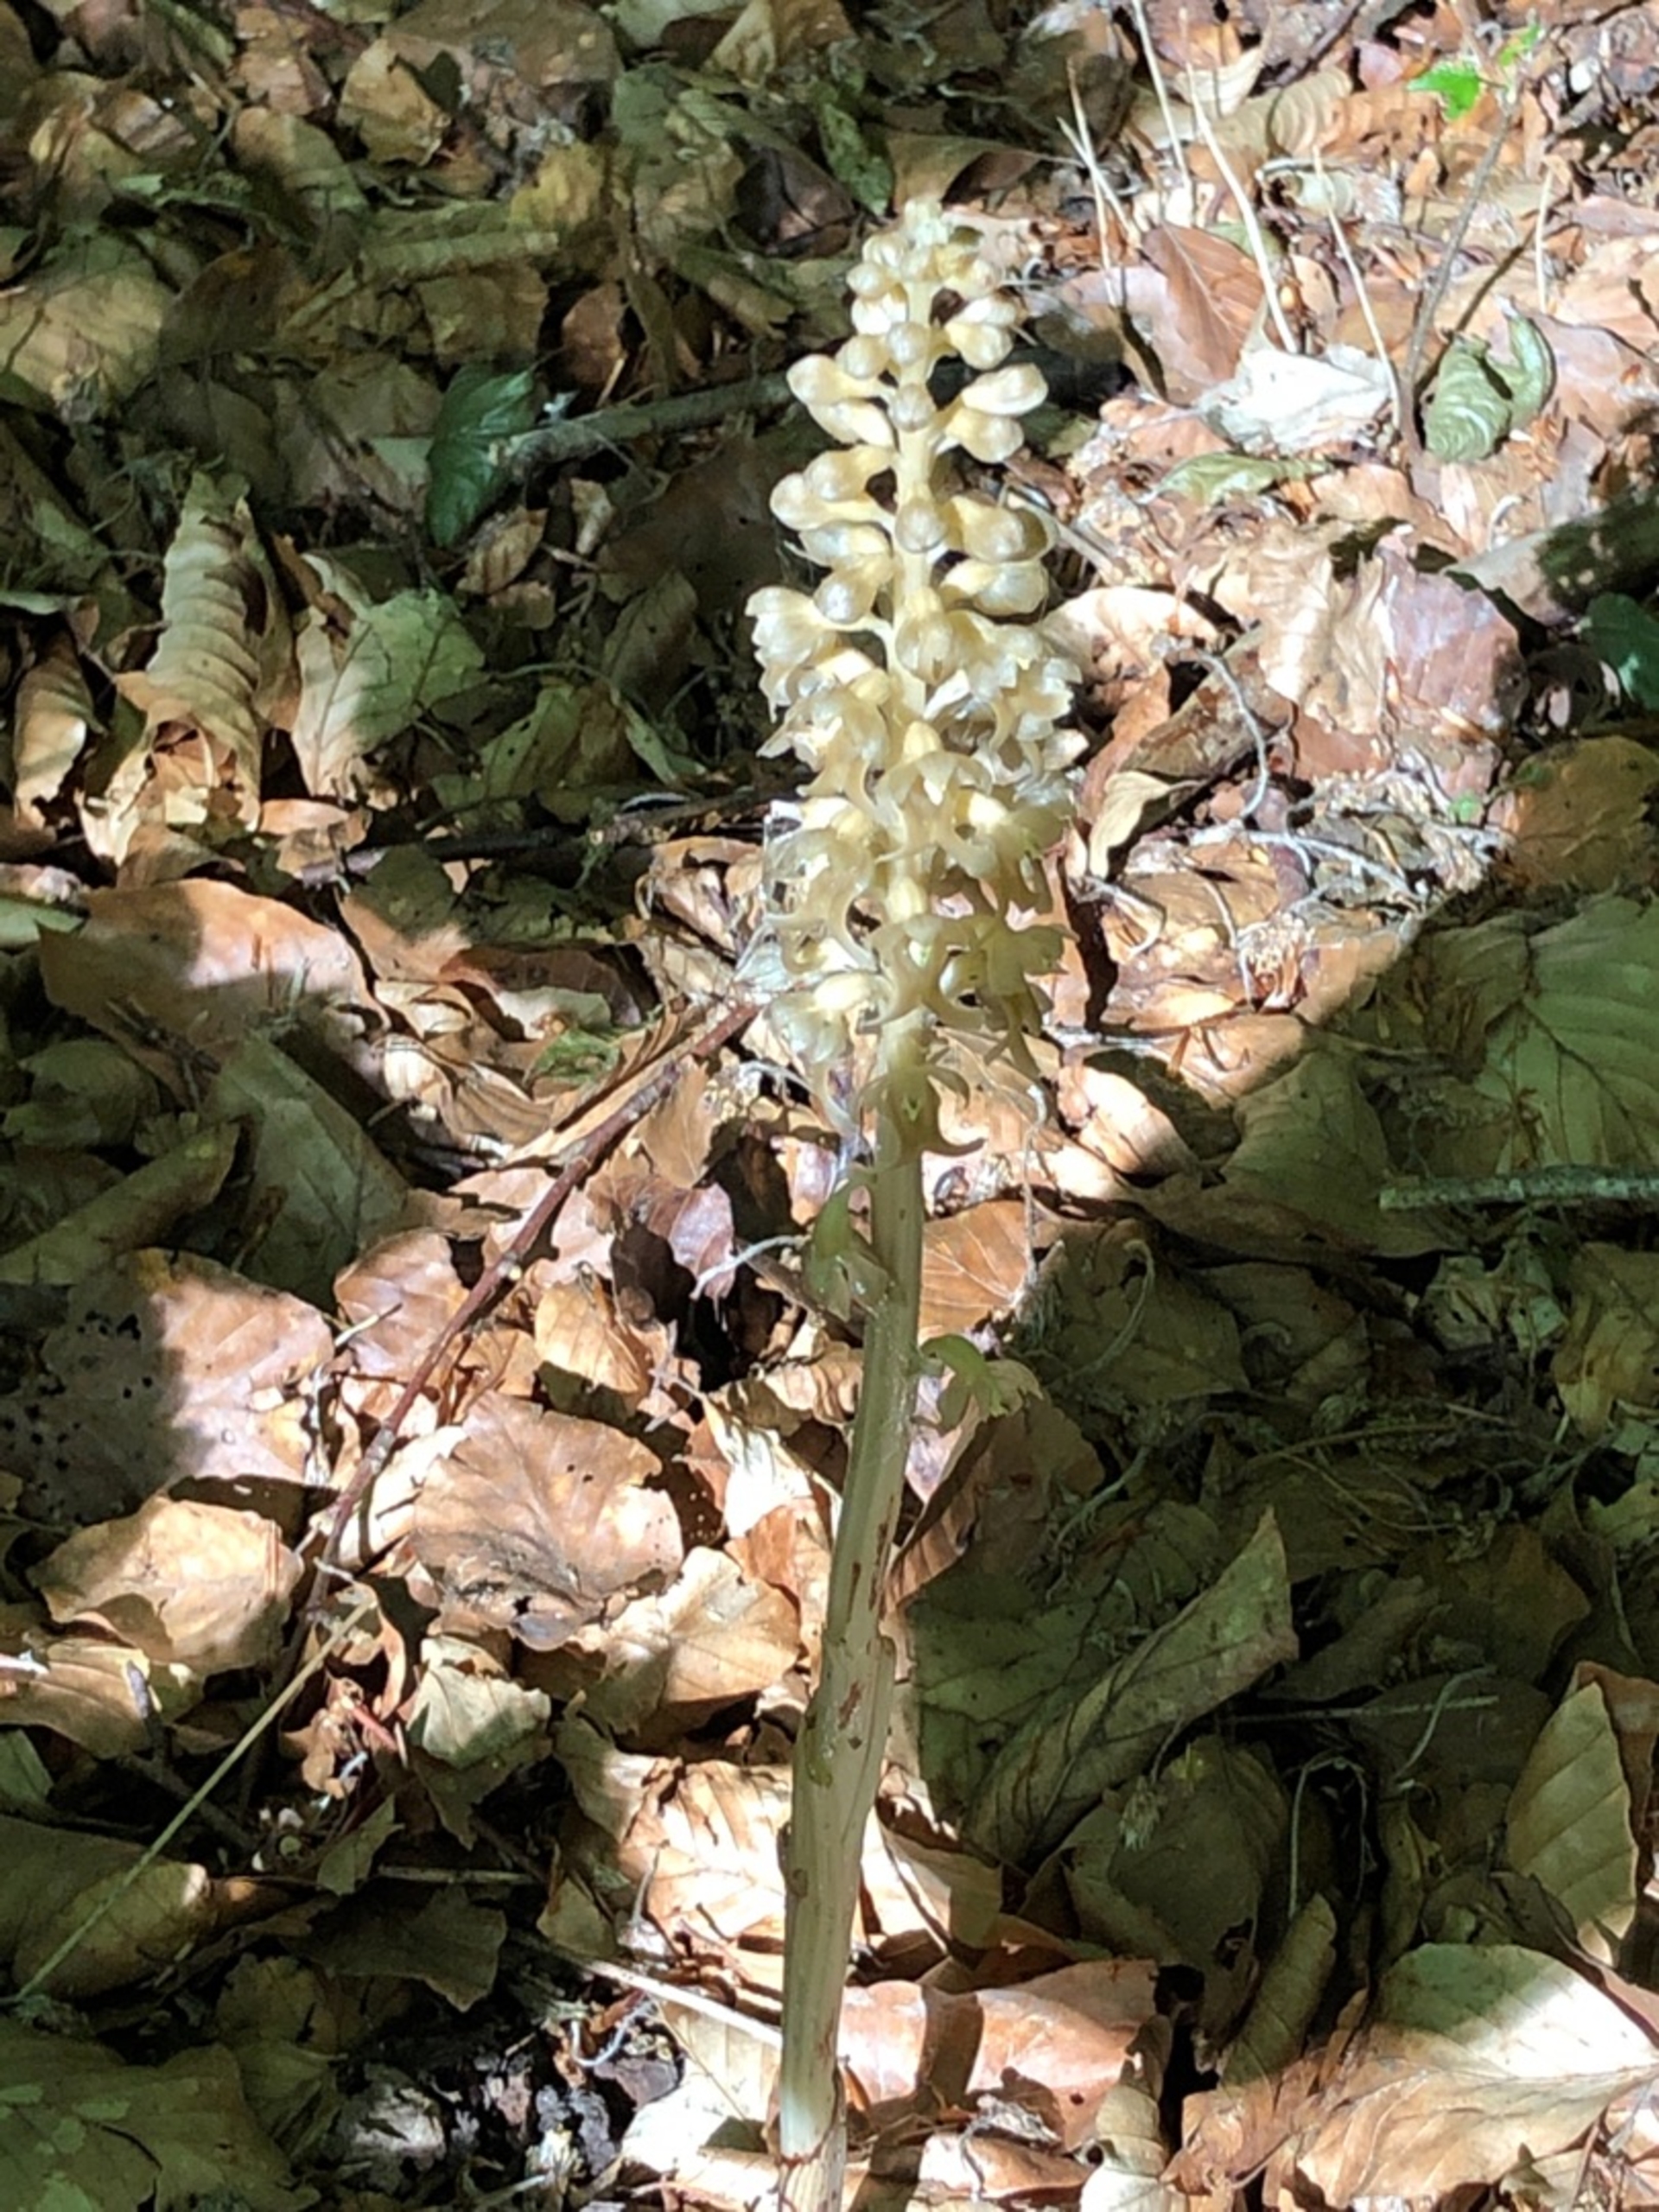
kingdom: Plantae
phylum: Tracheophyta
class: Liliopsida
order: Asparagales
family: Orchidaceae
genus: Neottia
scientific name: Neottia nidus-avis
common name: Rederod
